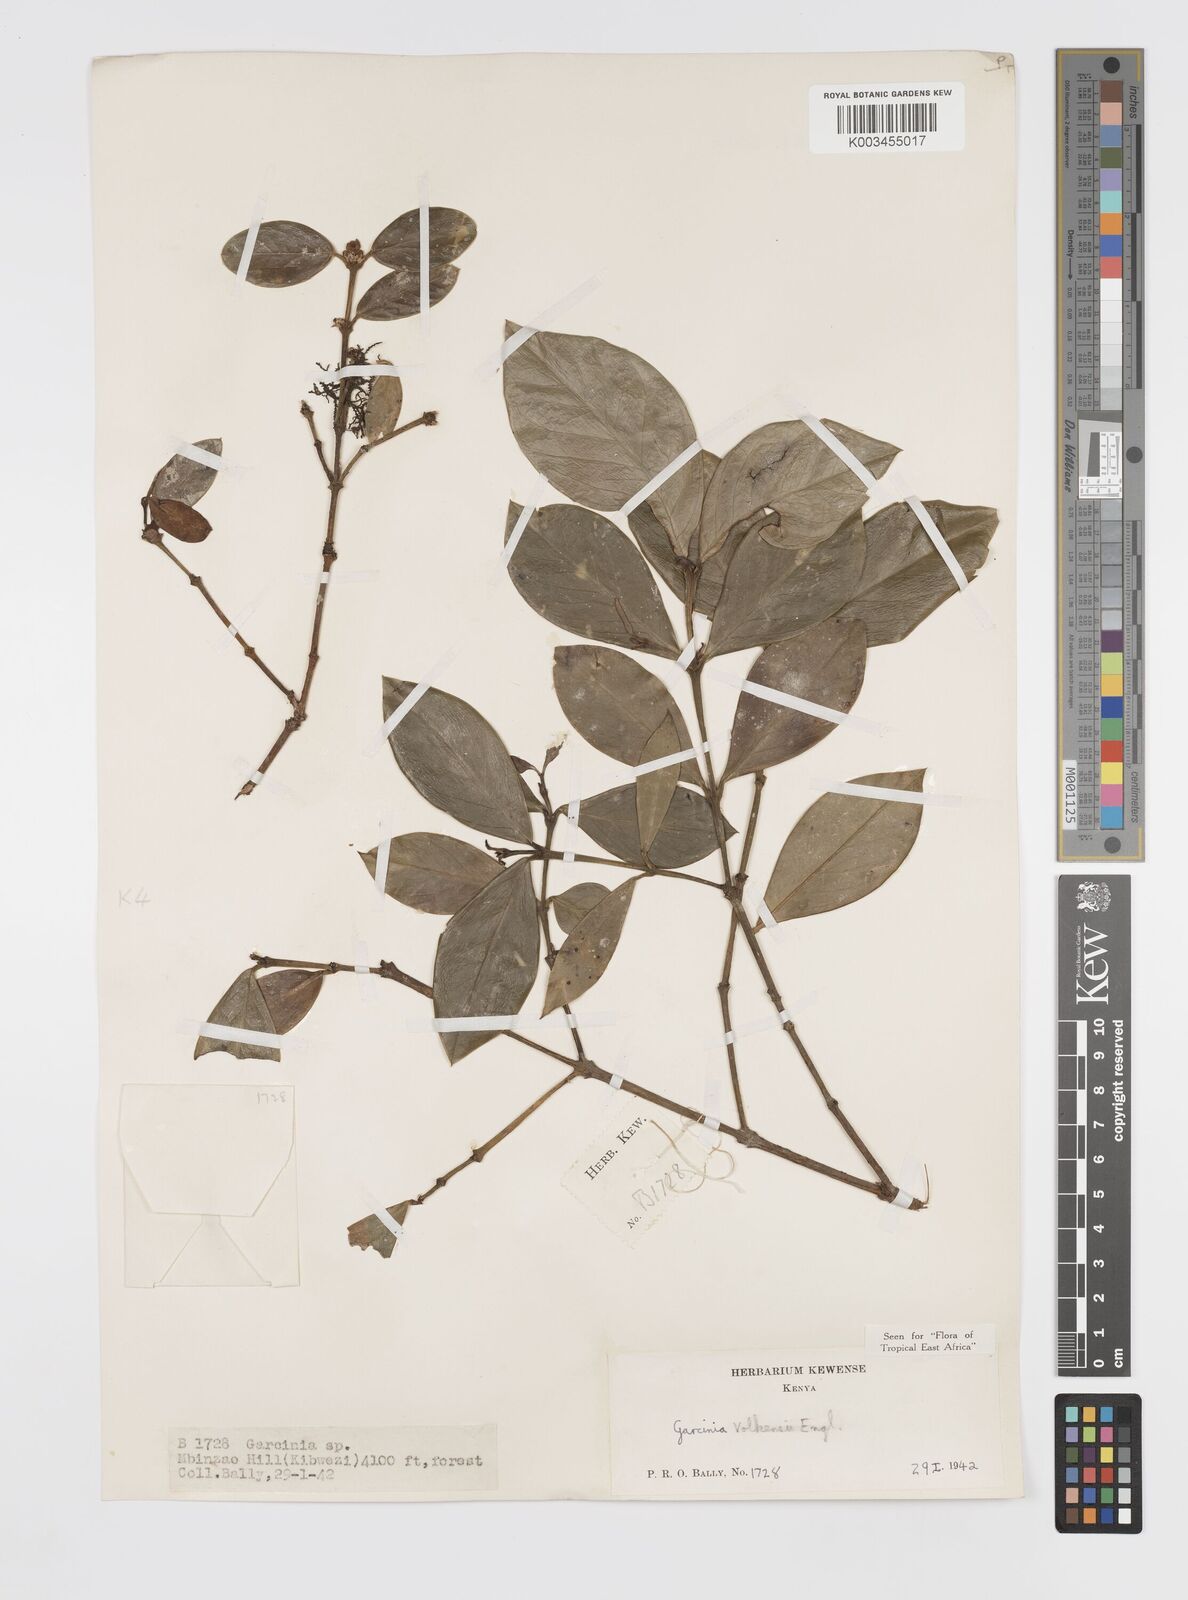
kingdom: Plantae
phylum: Tracheophyta
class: Magnoliopsida
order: Malpighiales
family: Clusiaceae
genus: Garcinia
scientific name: Garcinia volkensii
